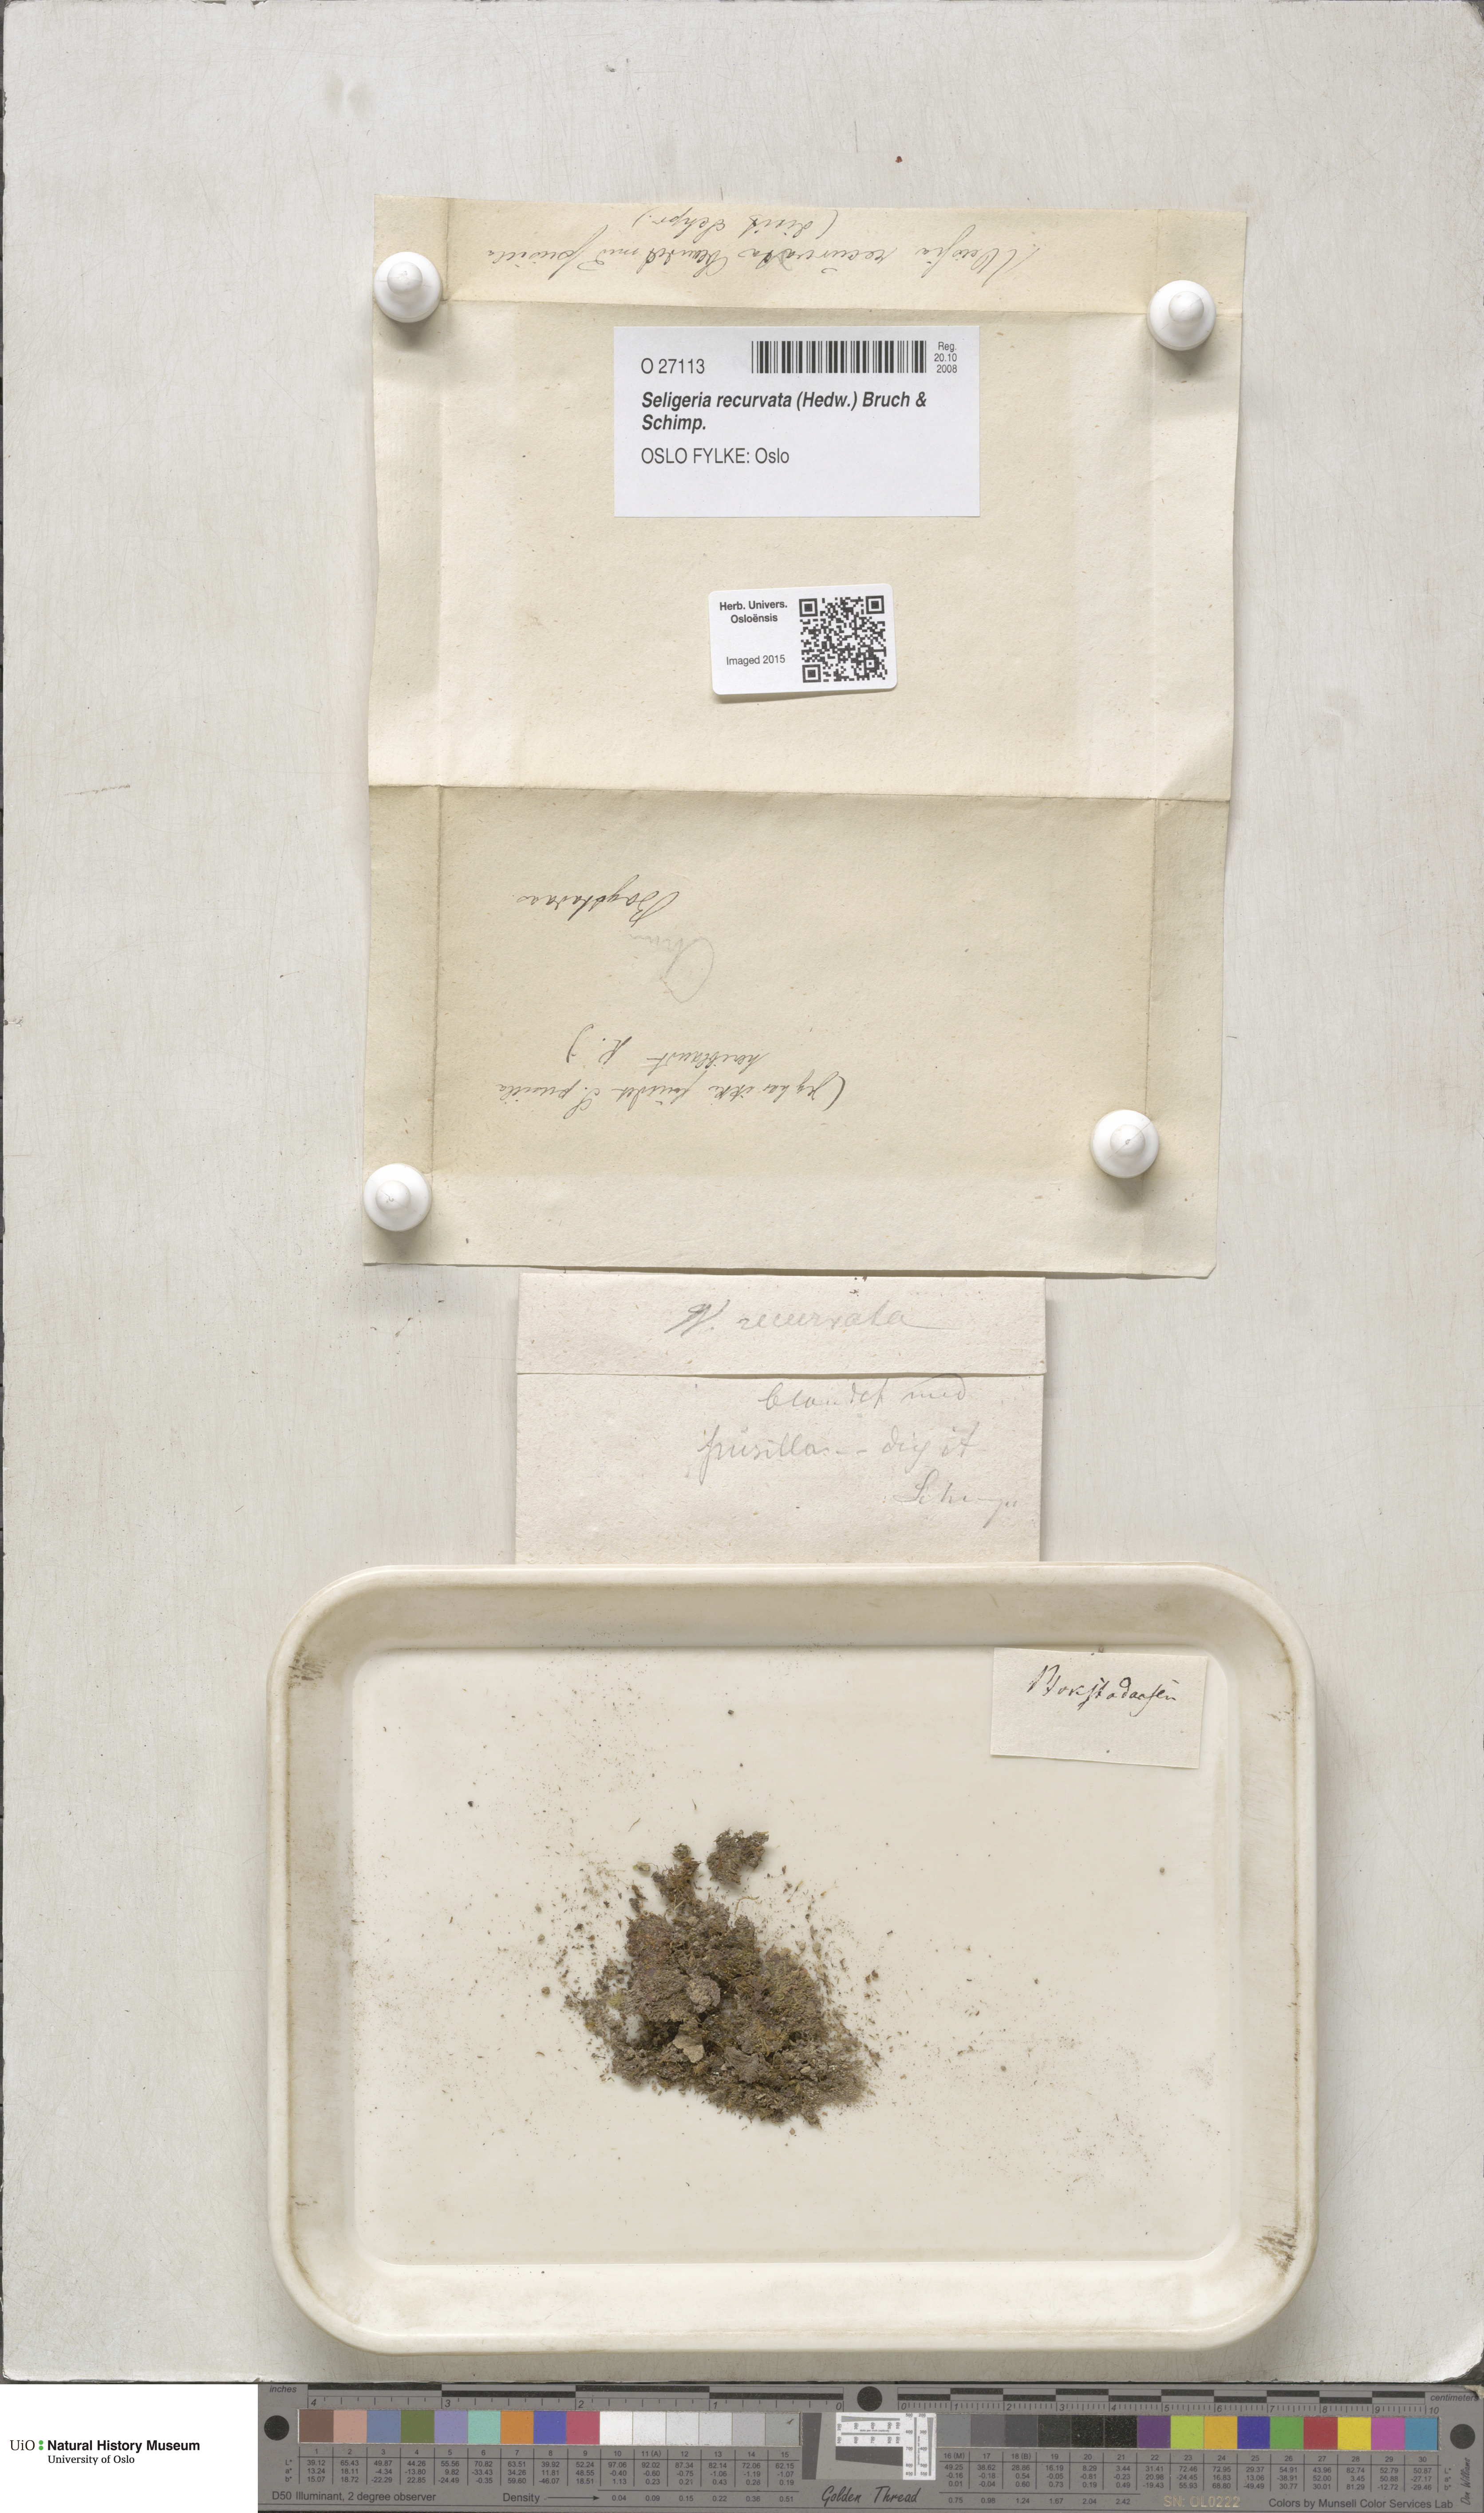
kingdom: Plantae
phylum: Bryophyta
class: Bryopsida
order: Grimmiales
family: Seligeriaceae
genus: Blindiadelphus
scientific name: Blindiadelphus recurvatus
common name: Recurved rock-bristle
